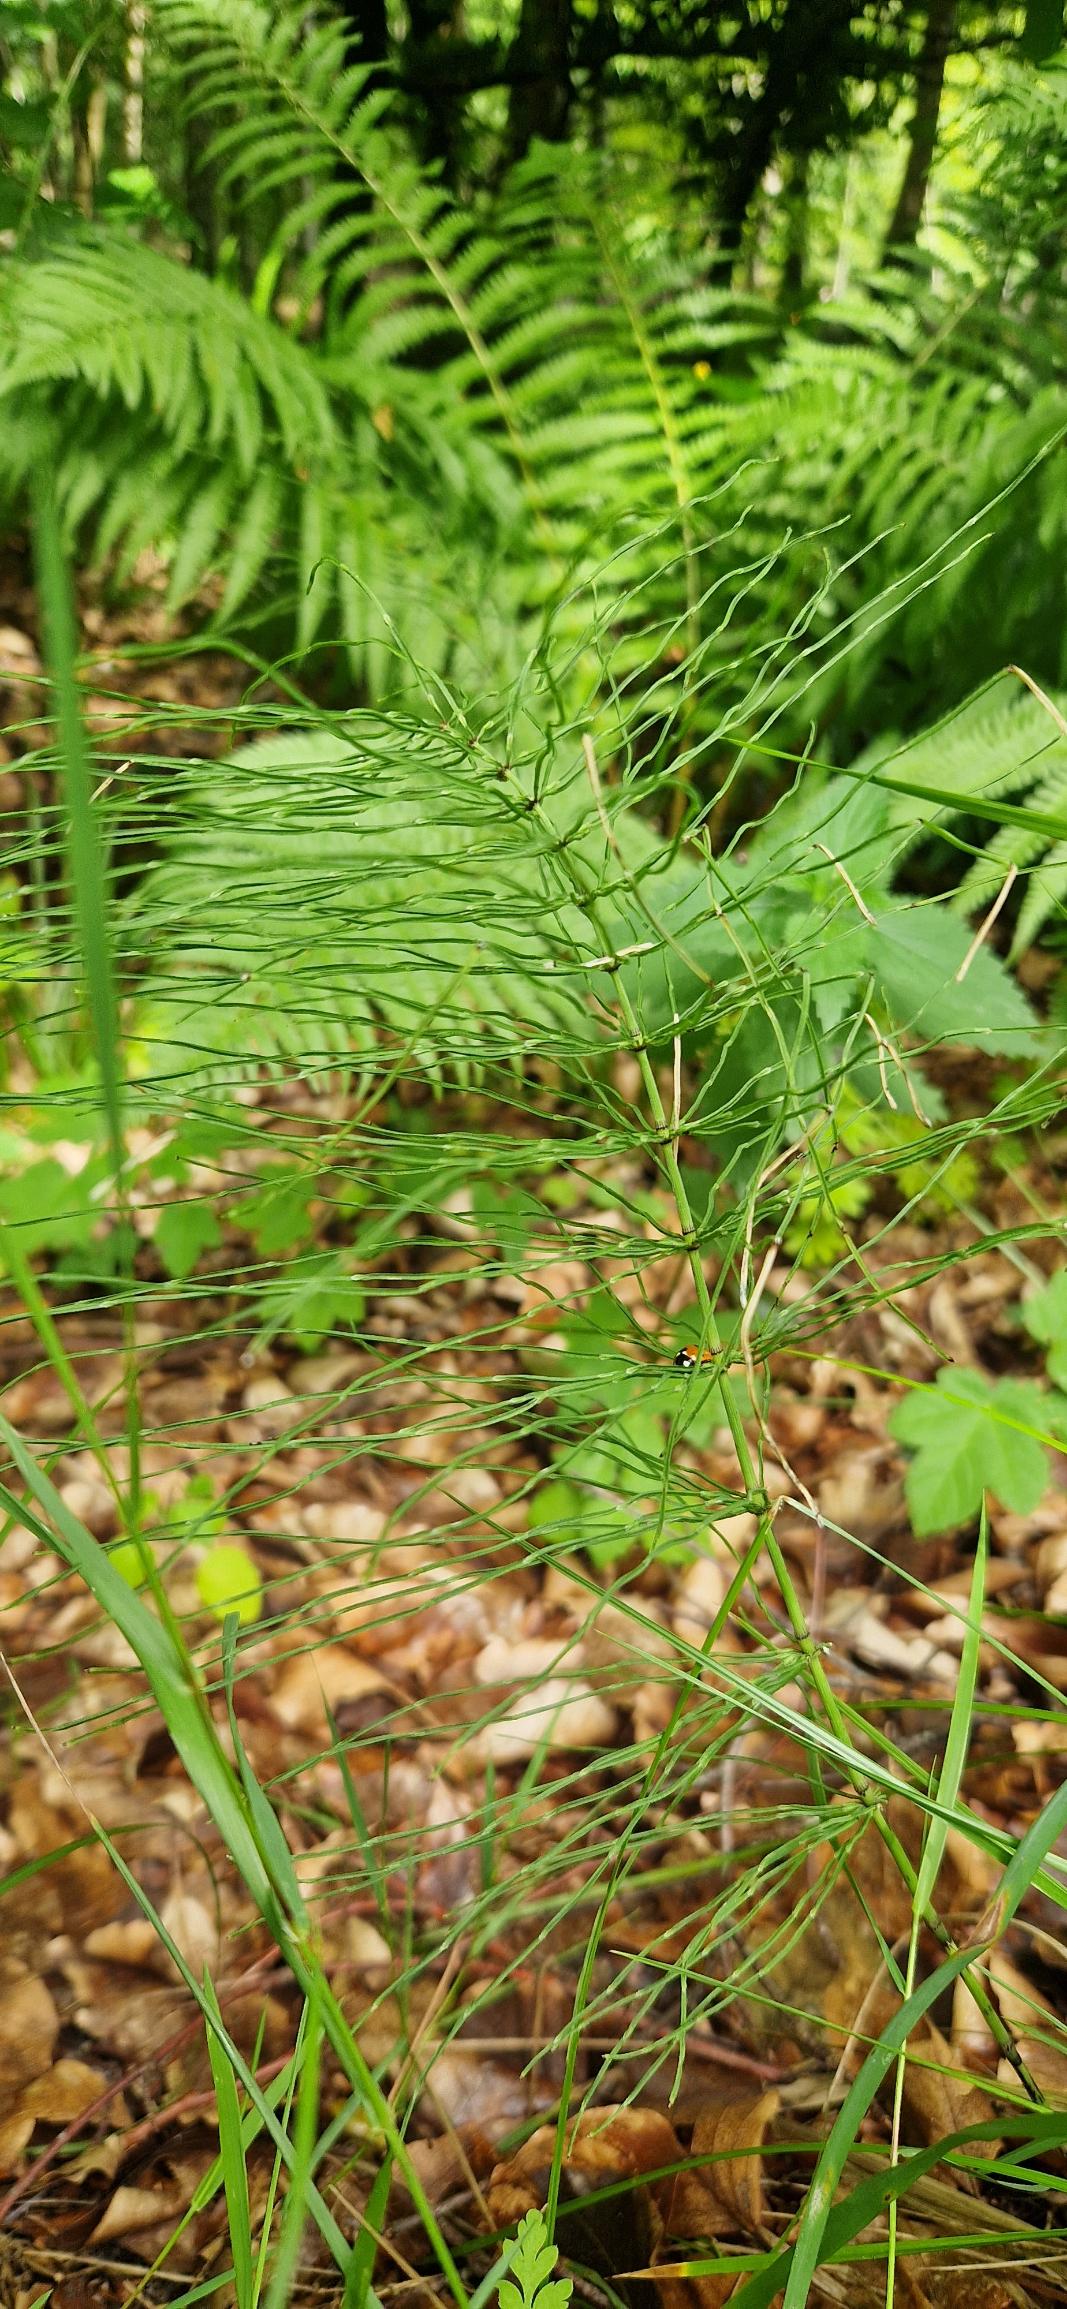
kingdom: Plantae
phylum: Tracheophyta
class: Polypodiopsida
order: Equisetales
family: Equisetaceae
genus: Equisetum
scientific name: Equisetum pratense
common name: Lund-padderok
